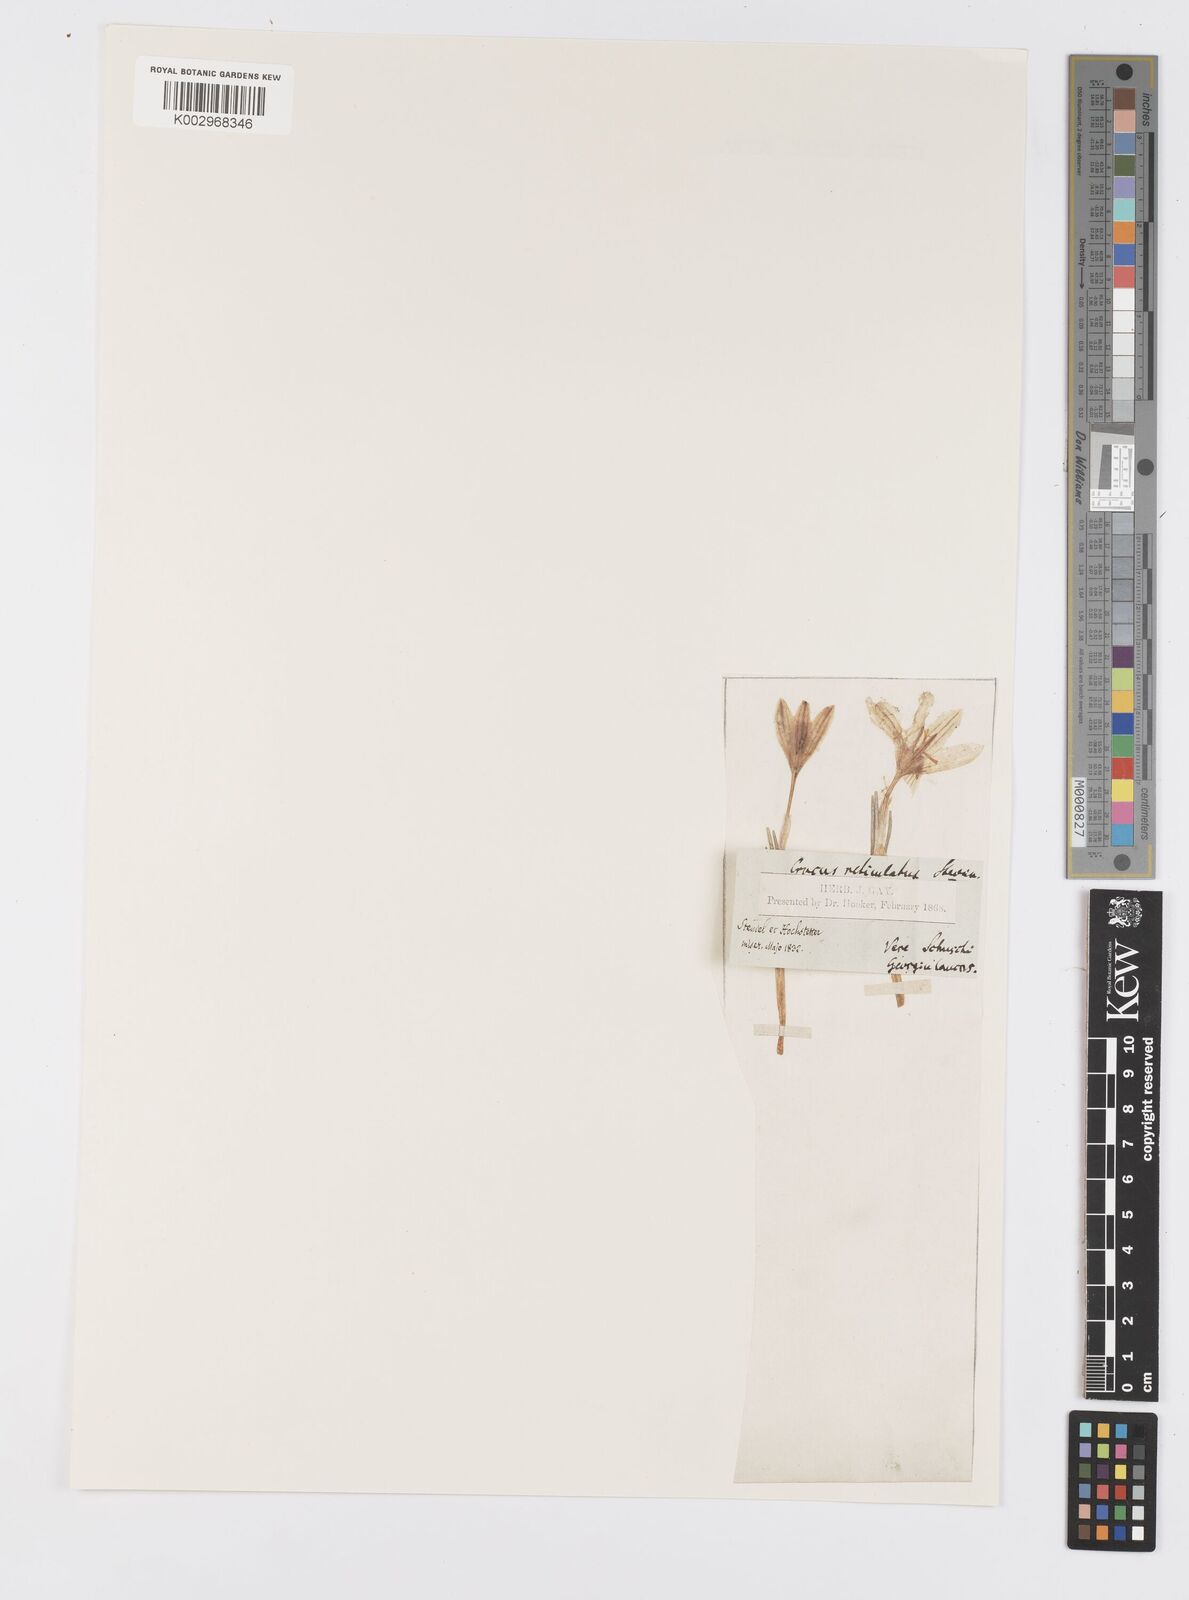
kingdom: Plantae
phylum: Tracheophyta
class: Liliopsida
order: Asparagales
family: Iridaceae
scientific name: Iridaceae
